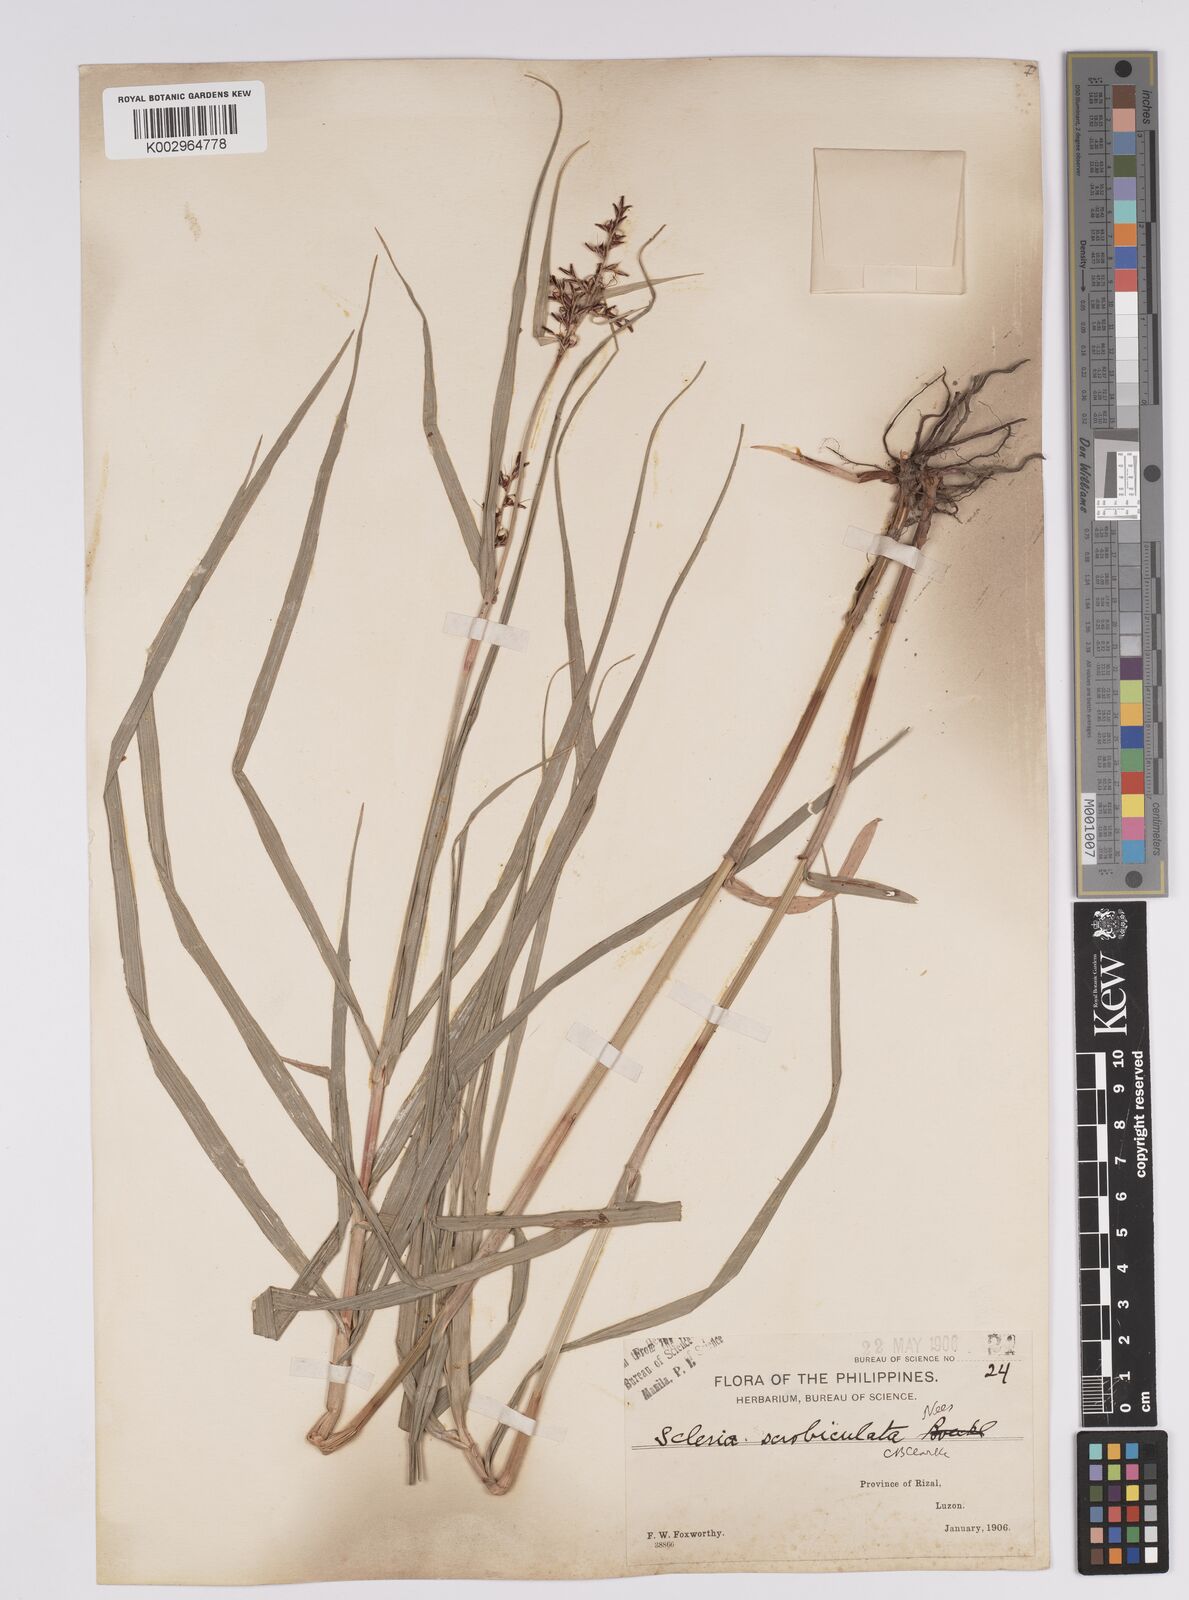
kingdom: Plantae
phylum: Tracheophyta
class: Liliopsida
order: Poales
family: Cyperaceae
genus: Scleria
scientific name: Scleria scrobiculata
